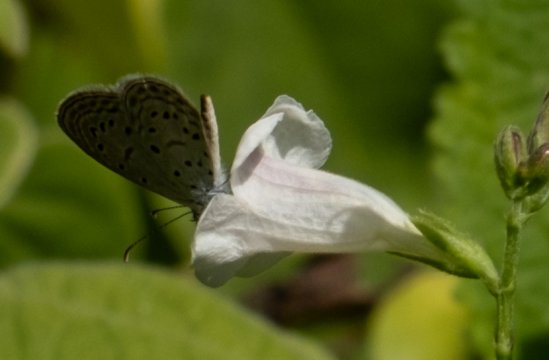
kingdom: Animalia
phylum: Arthropoda
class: Insecta
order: Lepidoptera
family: Lycaenidae
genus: Zizula
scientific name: Zizula hylax
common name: Tiny Grass Blue
